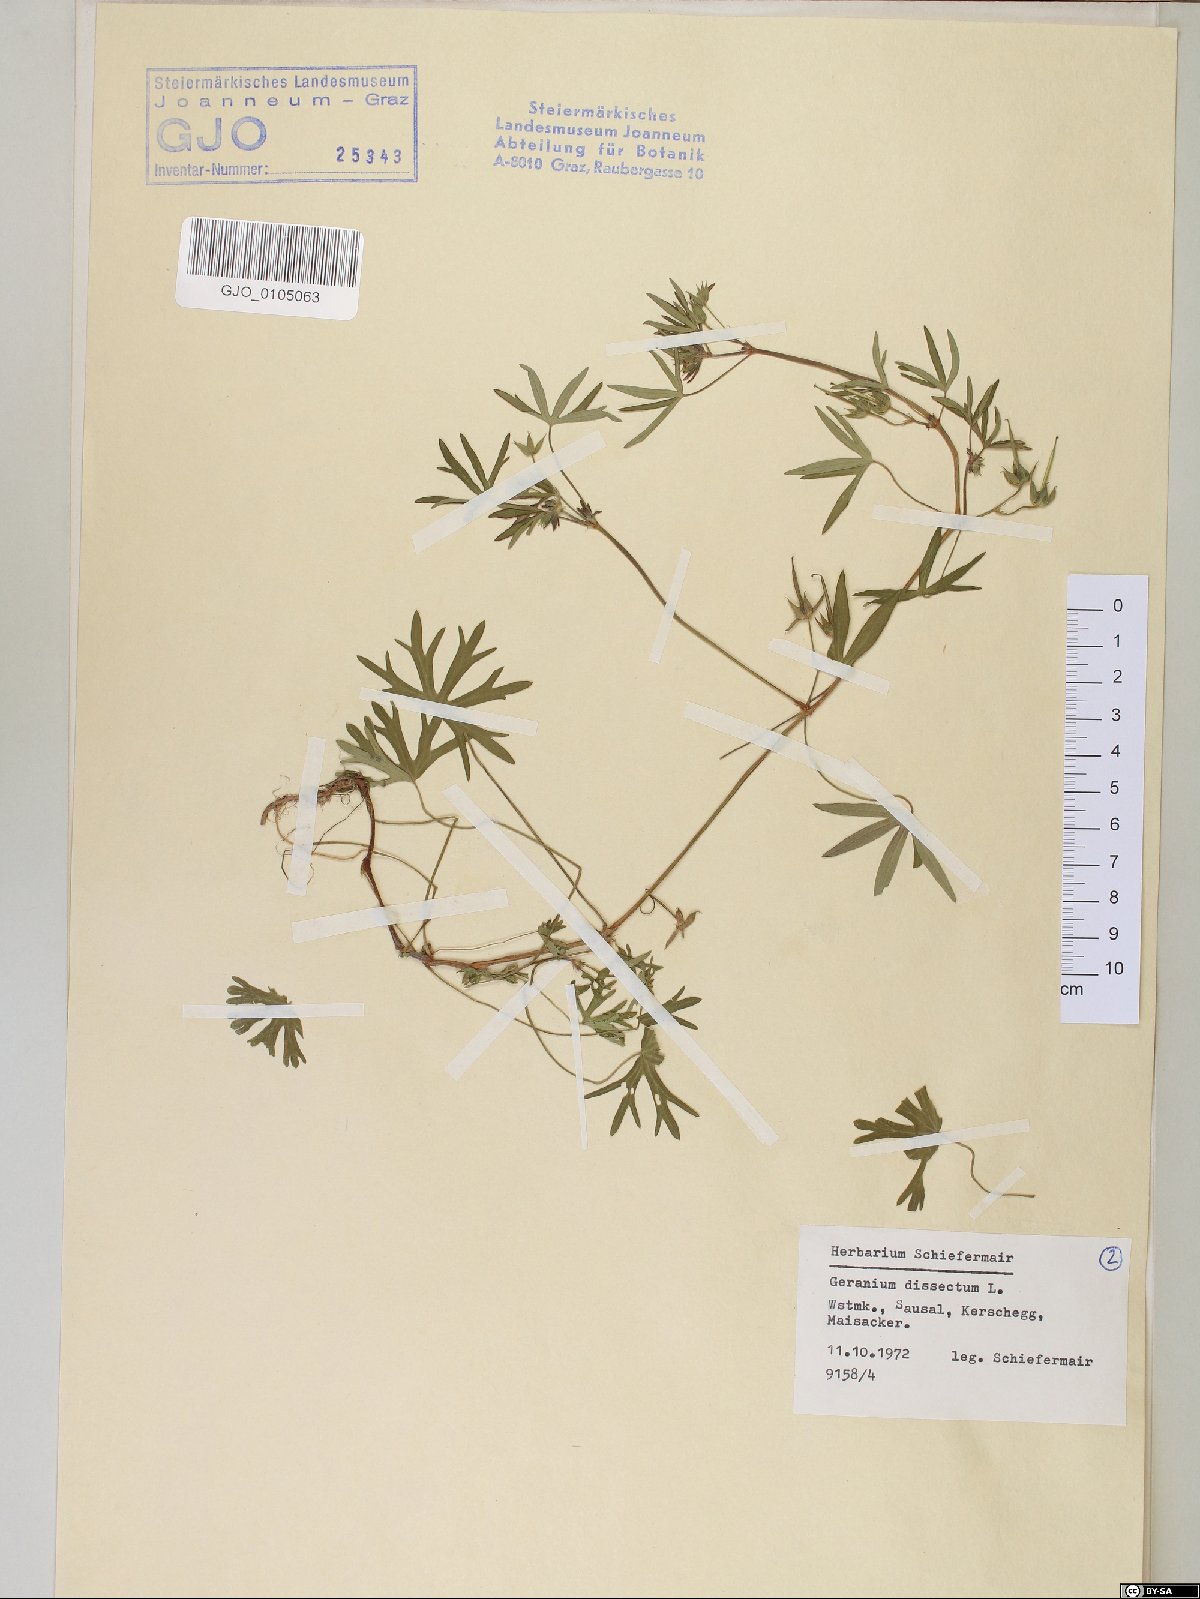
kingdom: Plantae
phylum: Tracheophyta
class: Magnoliopsida
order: Geraniales
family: Geraniaceae
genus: Geranium
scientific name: Geranium dissectum
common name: Cut-leaved crane's-bill
